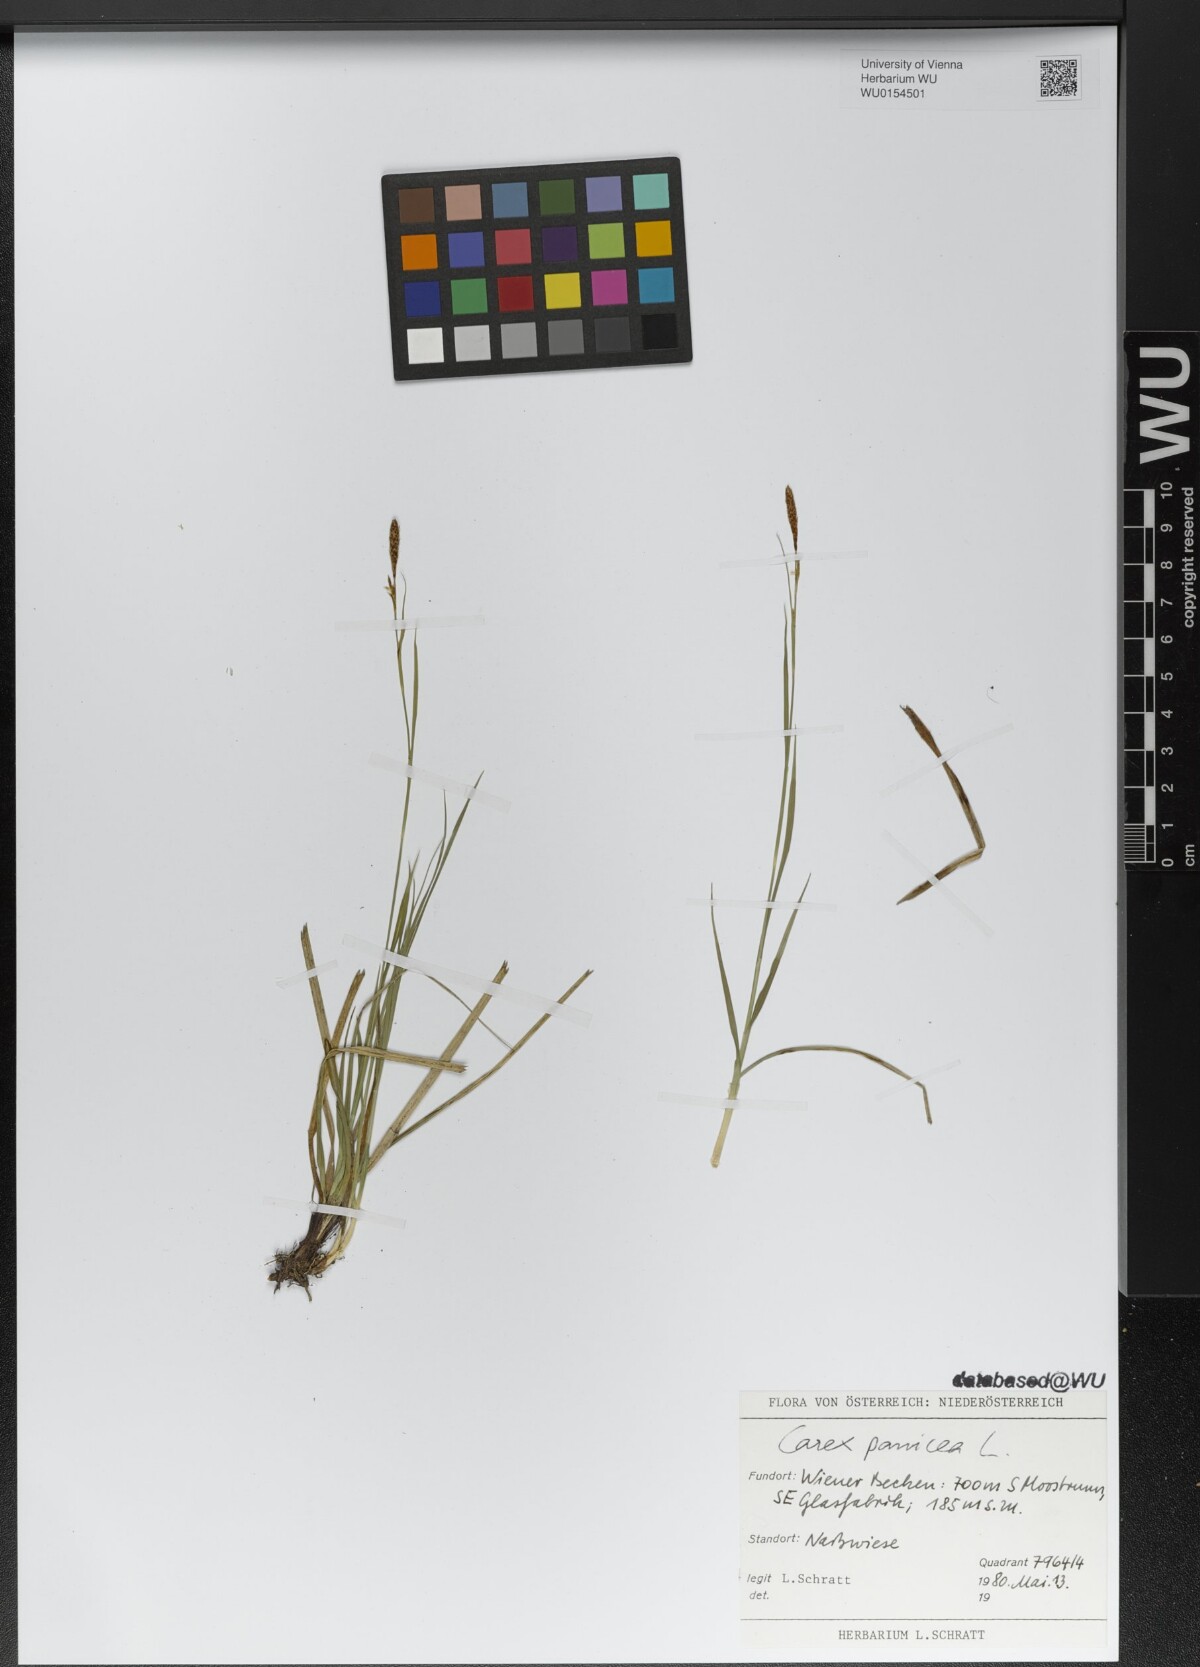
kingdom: Plantae
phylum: Tracheophyta
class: Liliopsida
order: Poales
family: Cyperaceae
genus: Carex
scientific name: Carex panicea
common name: Carnation sedge
